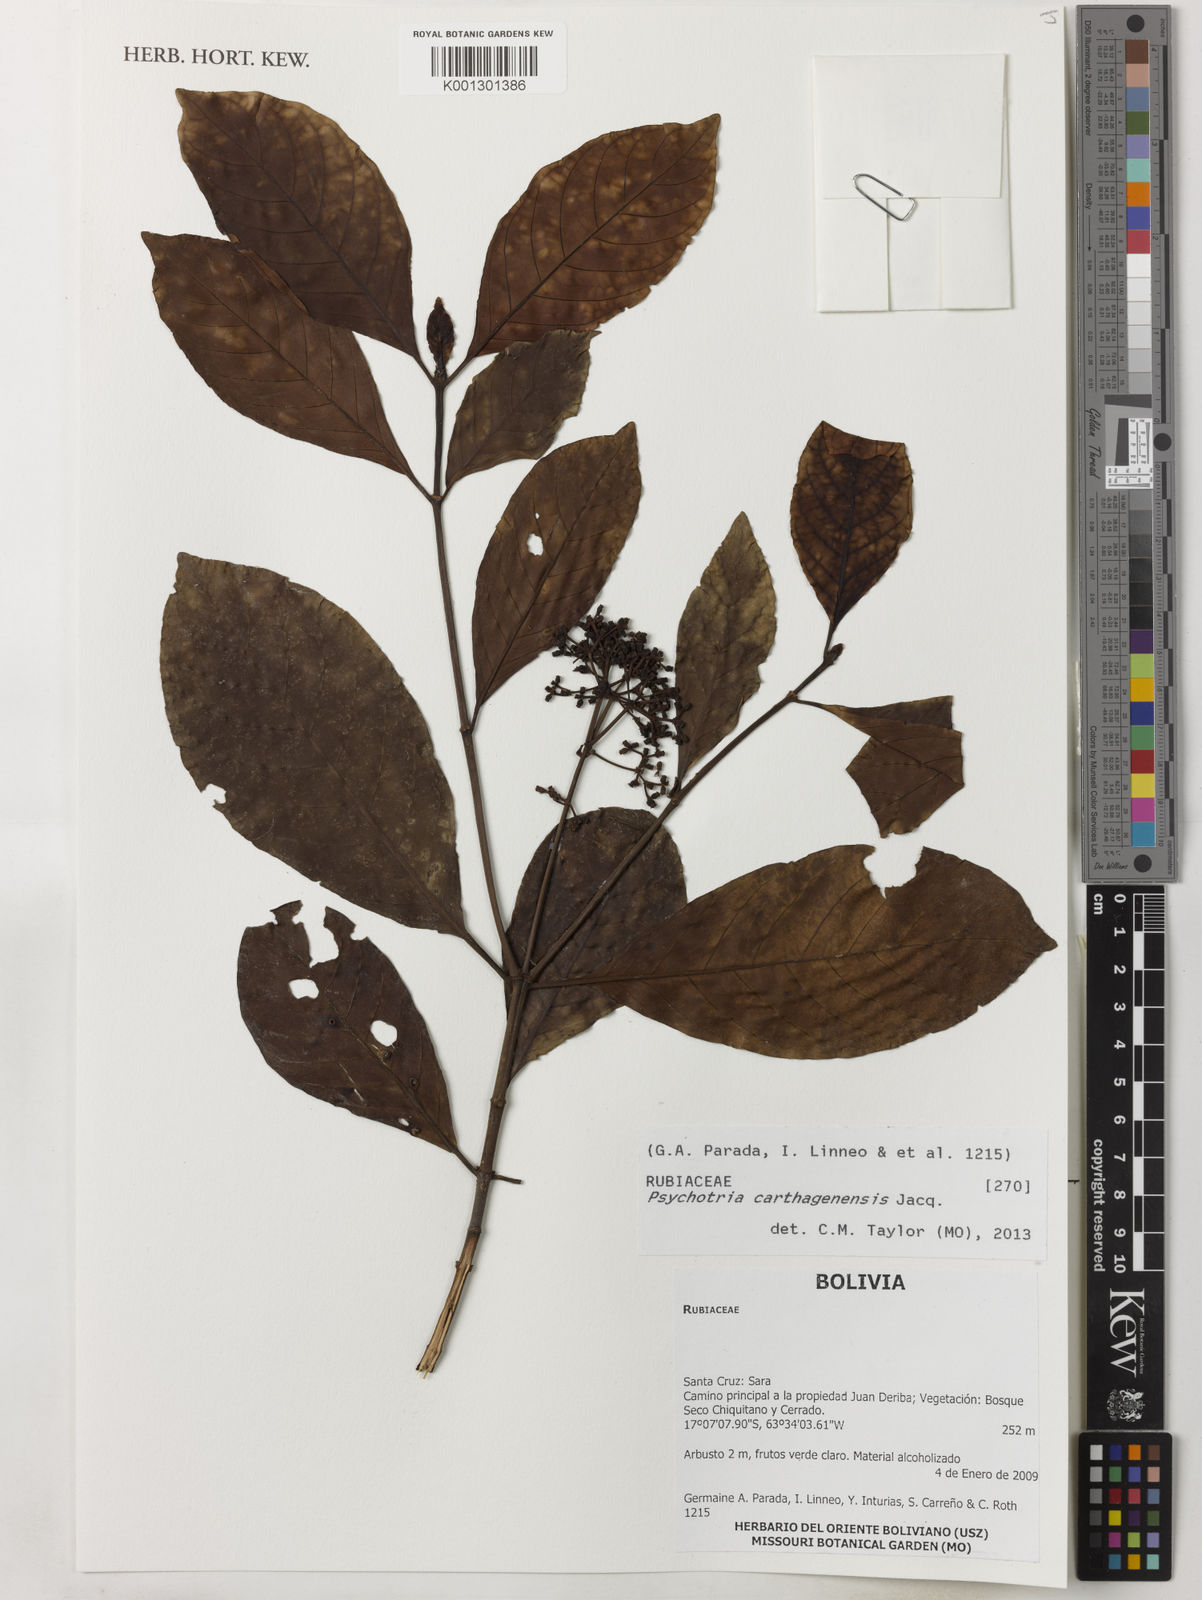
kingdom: Plantae
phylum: Tracheophyta
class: Magnoliopsida
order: Gentianales
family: Rubiaceae
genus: Notopleura
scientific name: Notopleura latistipula
